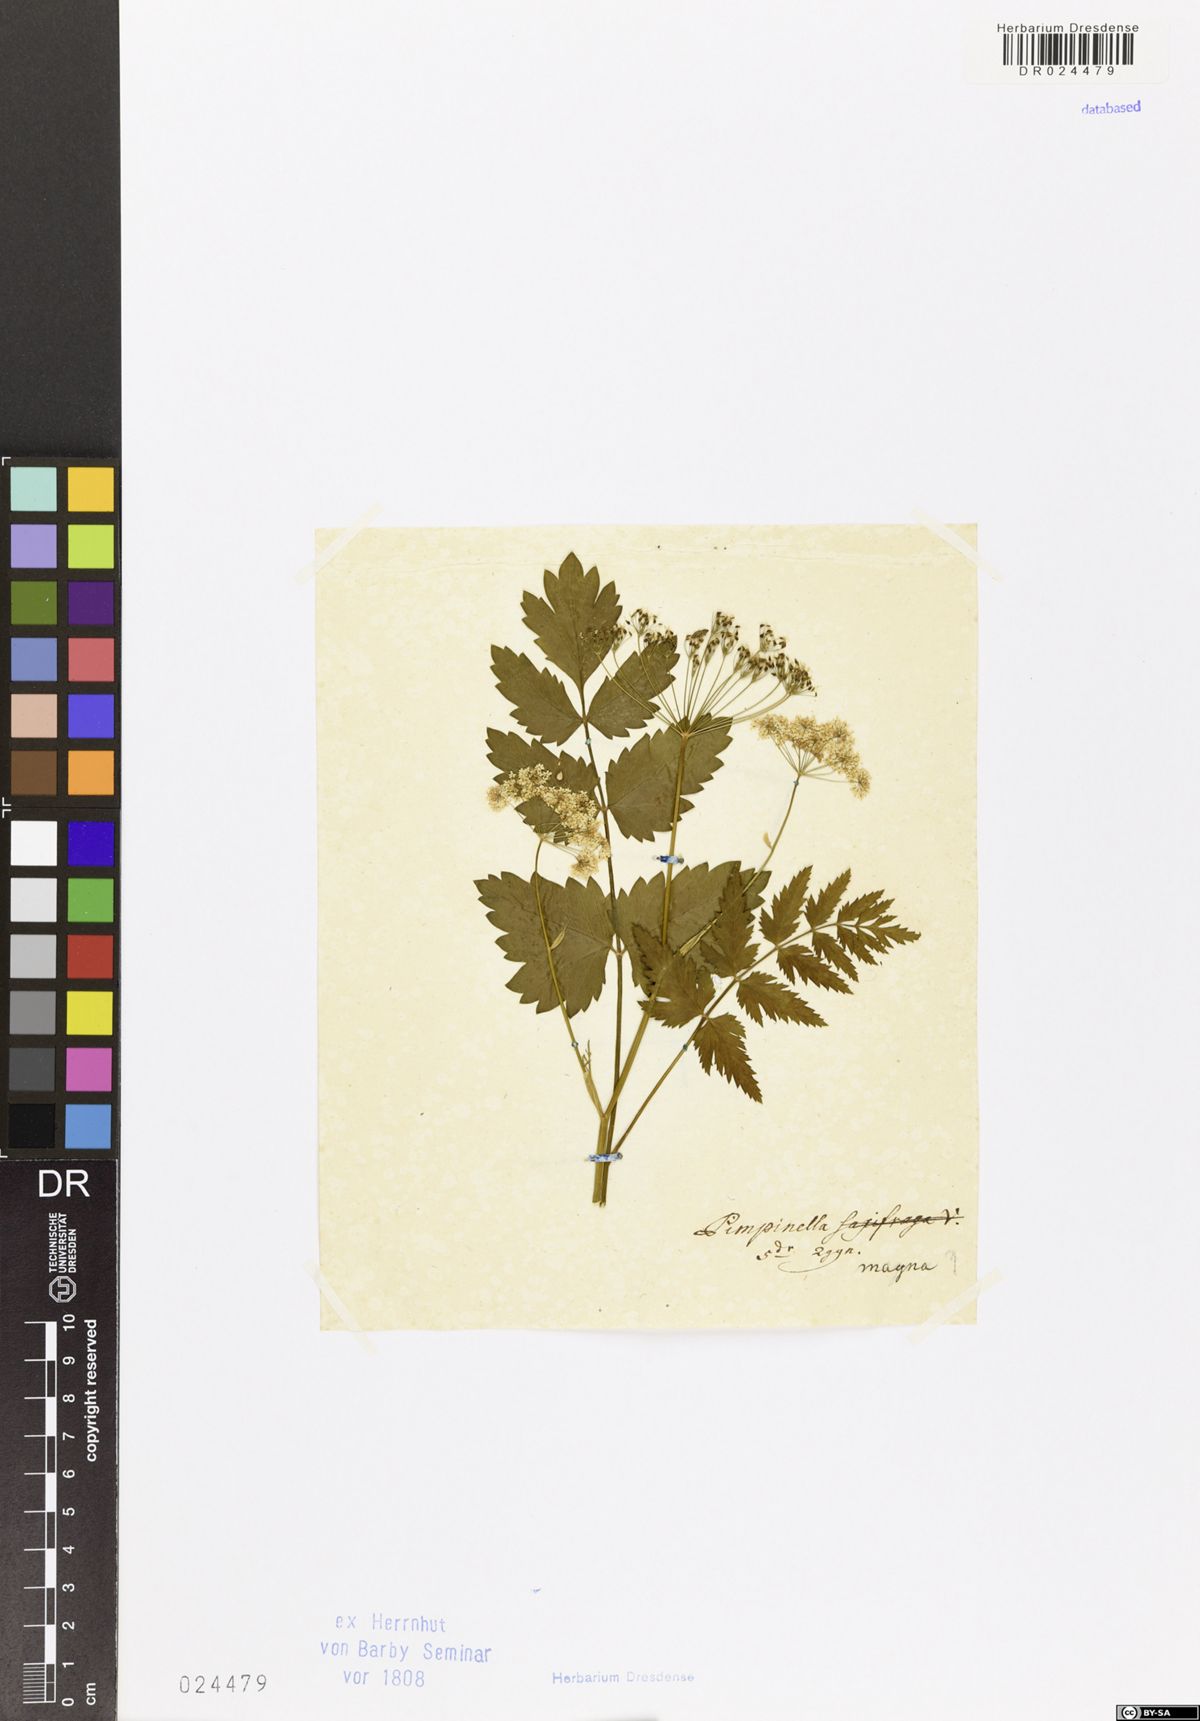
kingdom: Plantae
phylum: Tracheophyta
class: Magnoliopsida
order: Apiales
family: Apiaceae
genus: Pimpinella
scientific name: Pimpinella major
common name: Greater burnet-saxifrage
